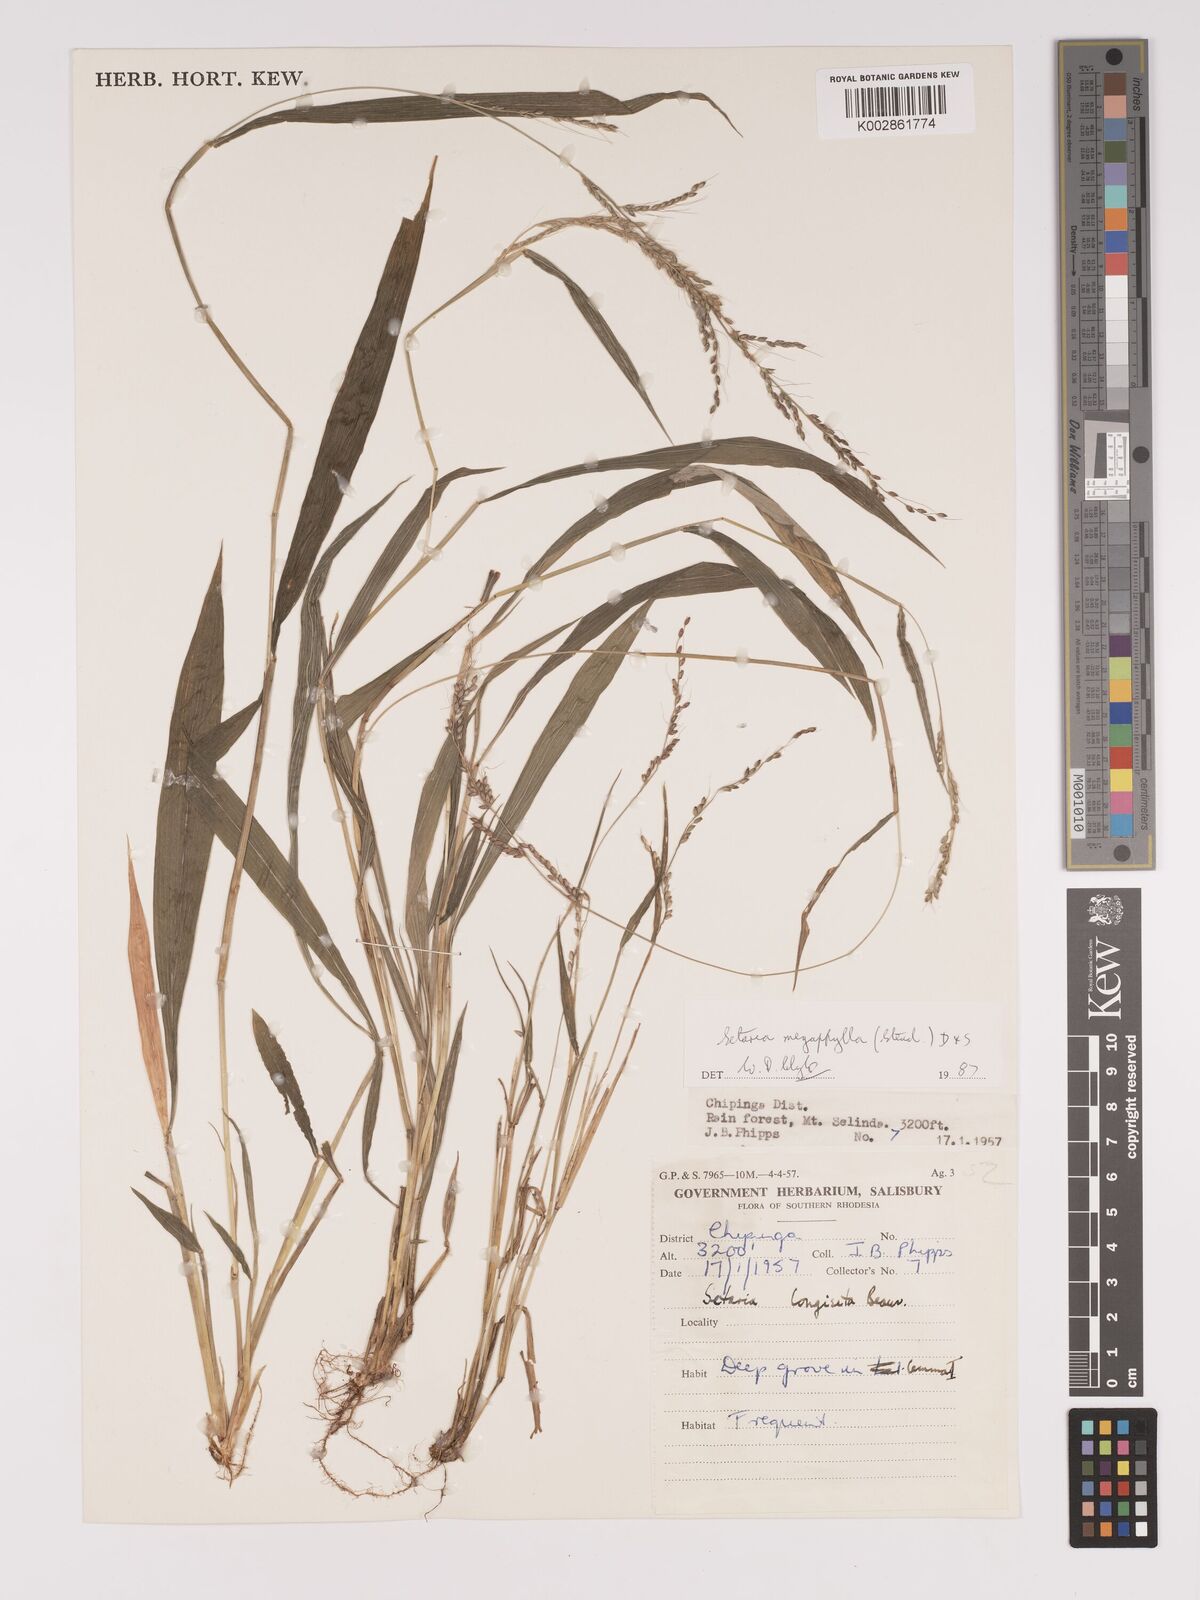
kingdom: Plantae
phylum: Tracheophyta
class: Liliopsida
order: Poales
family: Poaceae
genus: Setaria
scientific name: Setaria megaphylla
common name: Bigleaf bristlegrass
